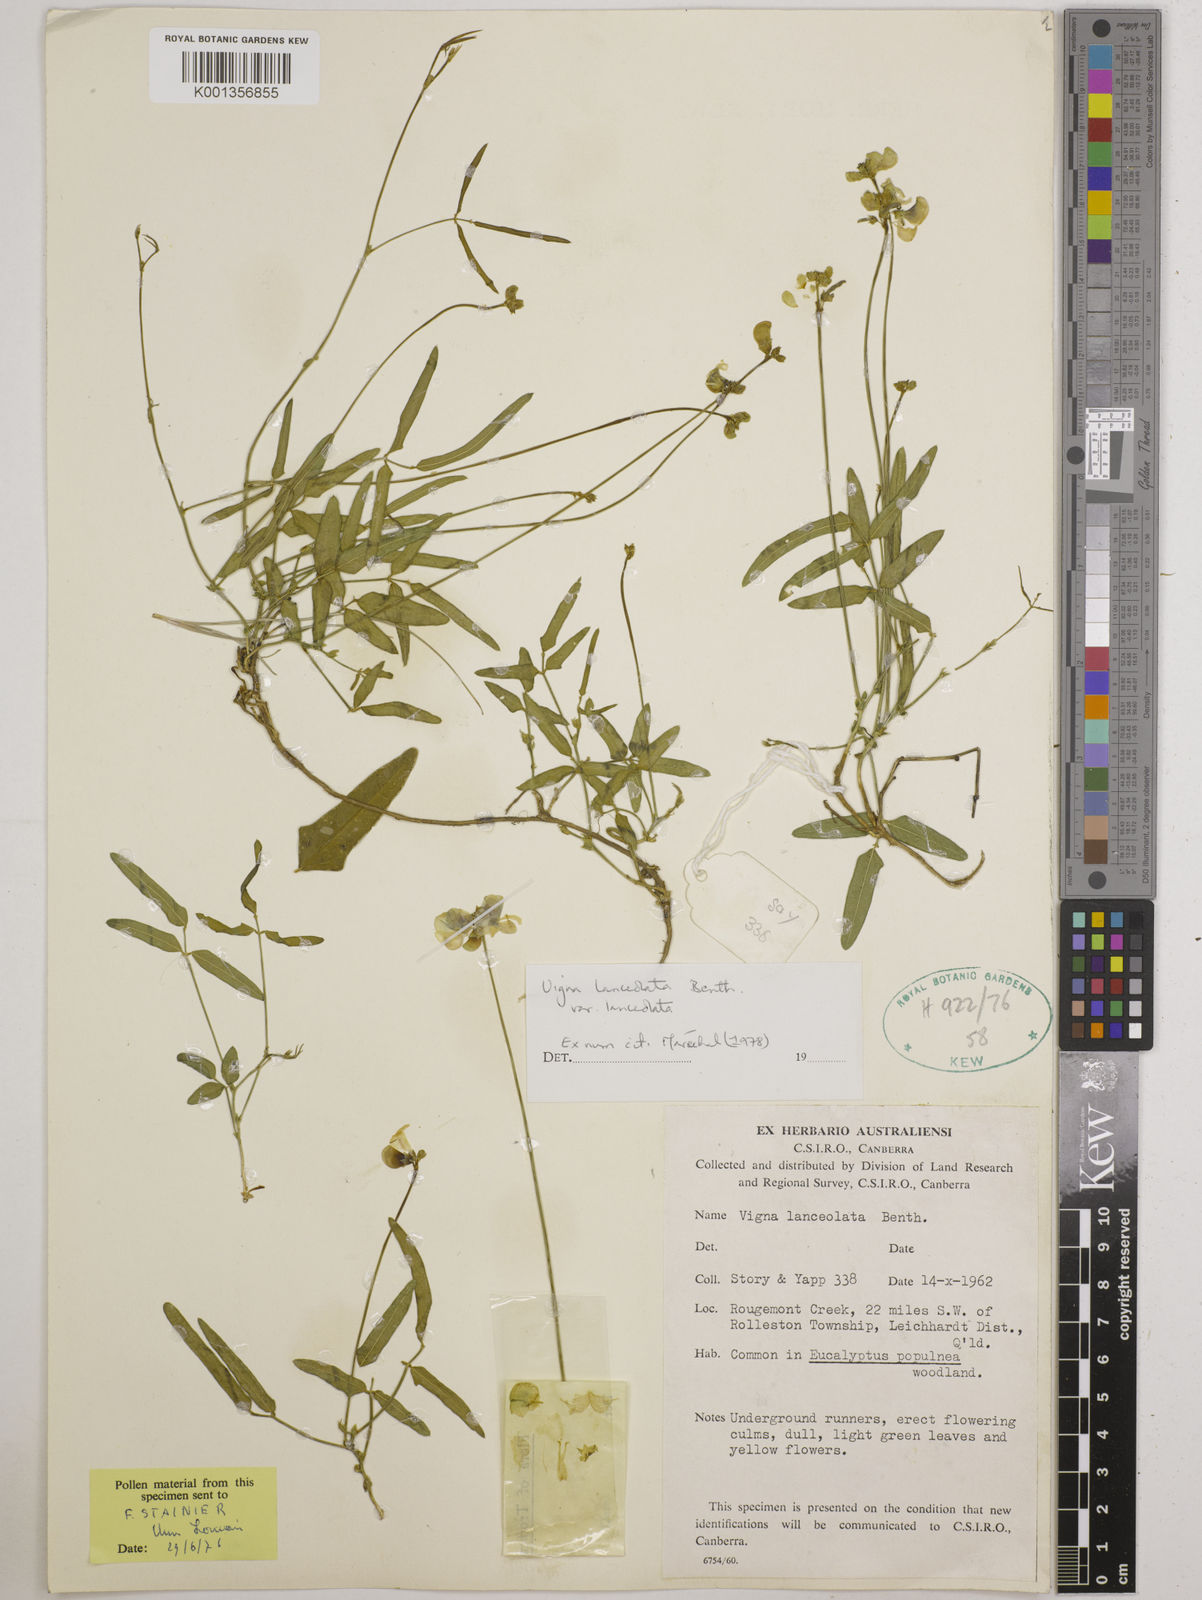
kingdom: Plantae
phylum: Tracheophyta
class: Magnoliopsida
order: Fabales
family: Fabaceae
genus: Vigna
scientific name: Vigna lanceolata
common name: Maloga-bean
